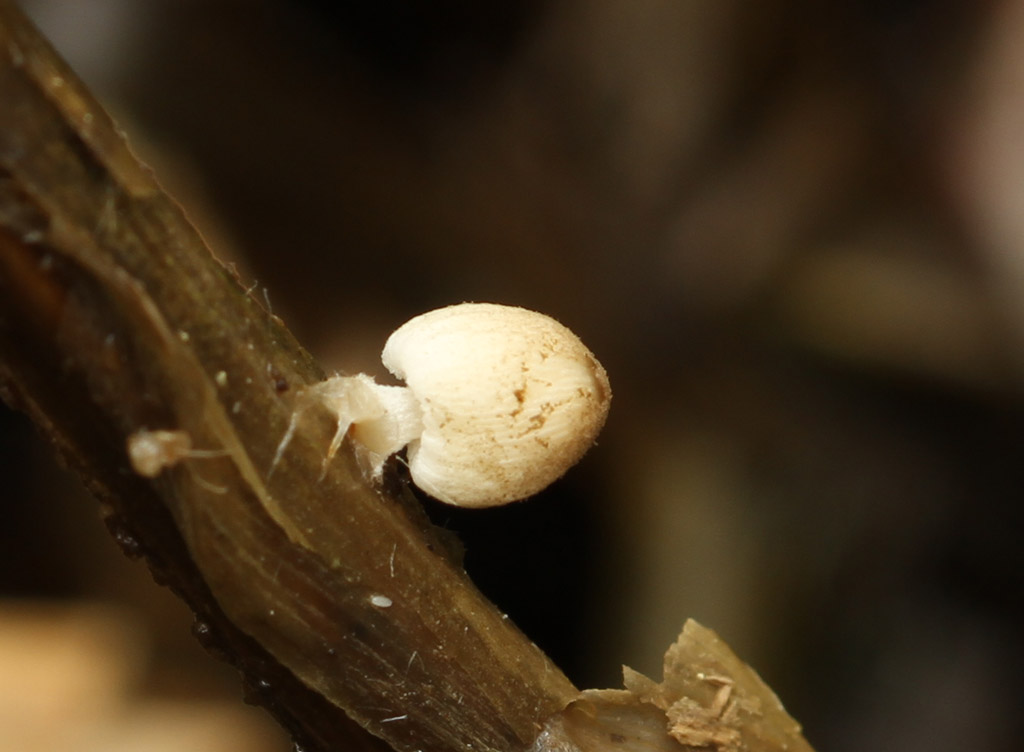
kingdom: Fungi
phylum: Basidiomycota
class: Agaricomycetes
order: Agaricales
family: Psathyrellaceae
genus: Coprinopsis
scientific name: Coprinopsis kubickae
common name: amfibie-blækhat
